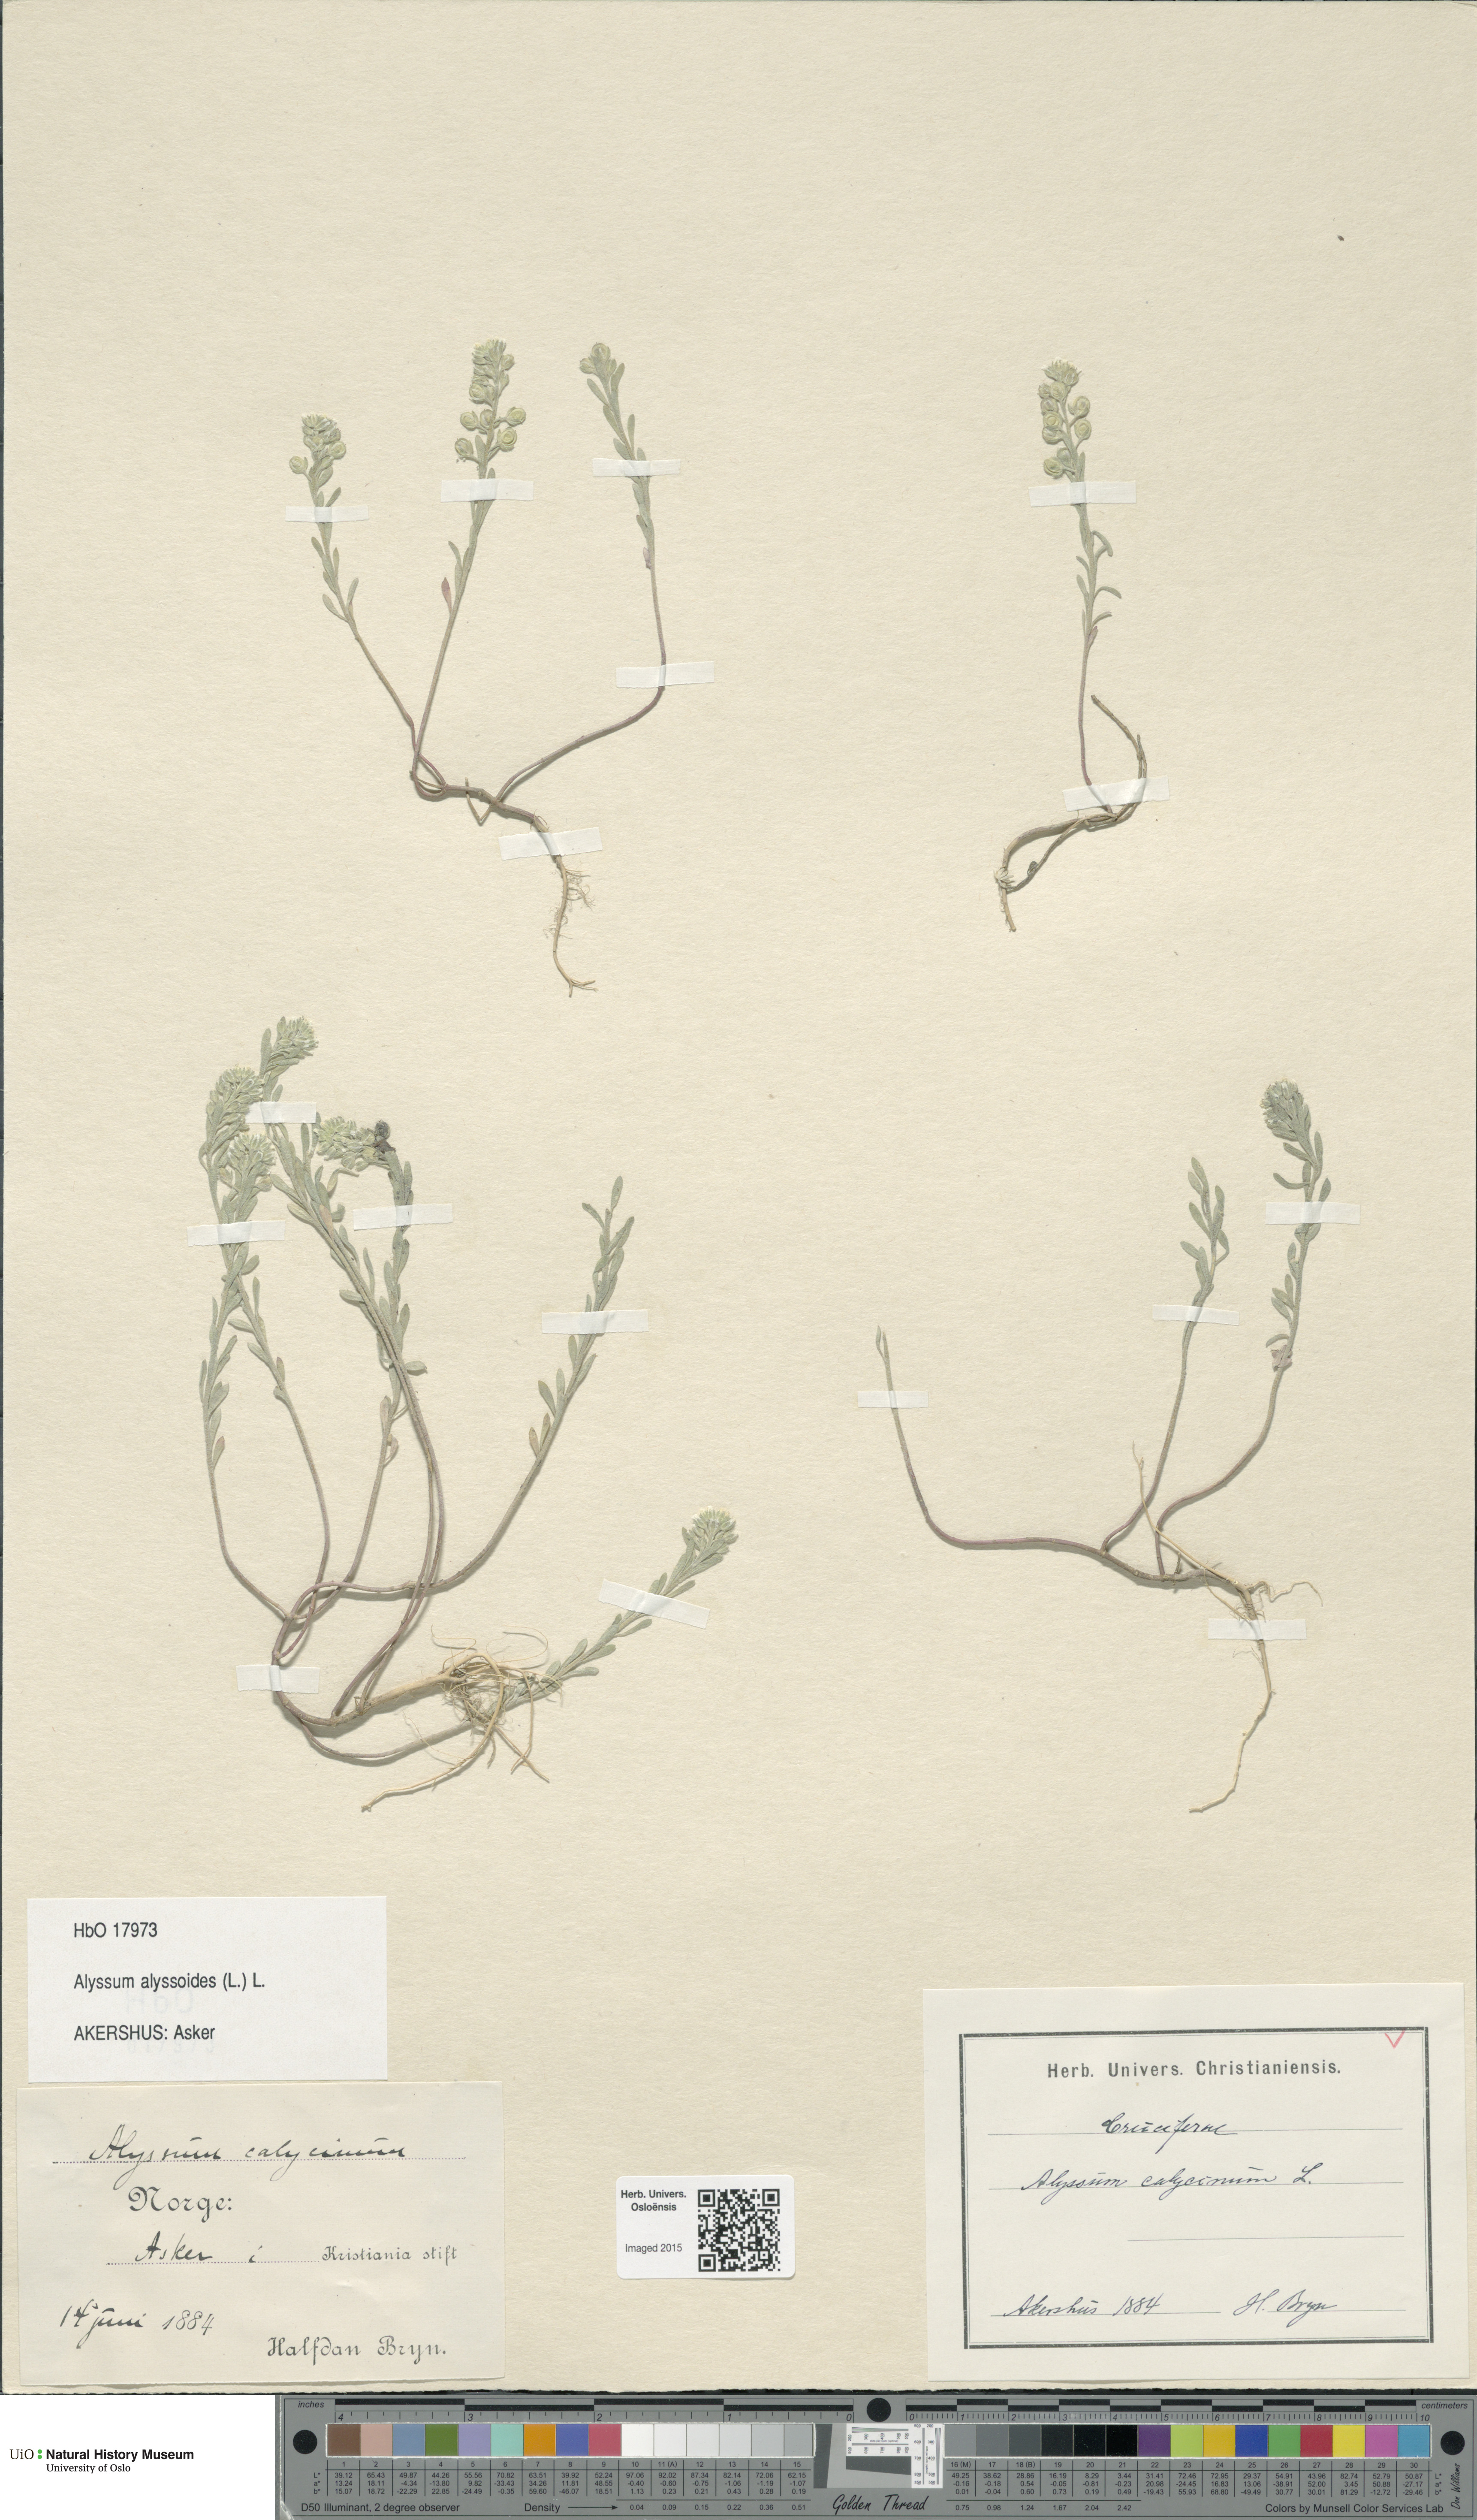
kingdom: Plantae
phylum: Tracheophyta
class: Magnoliopsida
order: Brassicales
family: Brassicaceae
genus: Alyssum
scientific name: Alyssum alyssoides
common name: Small alison
